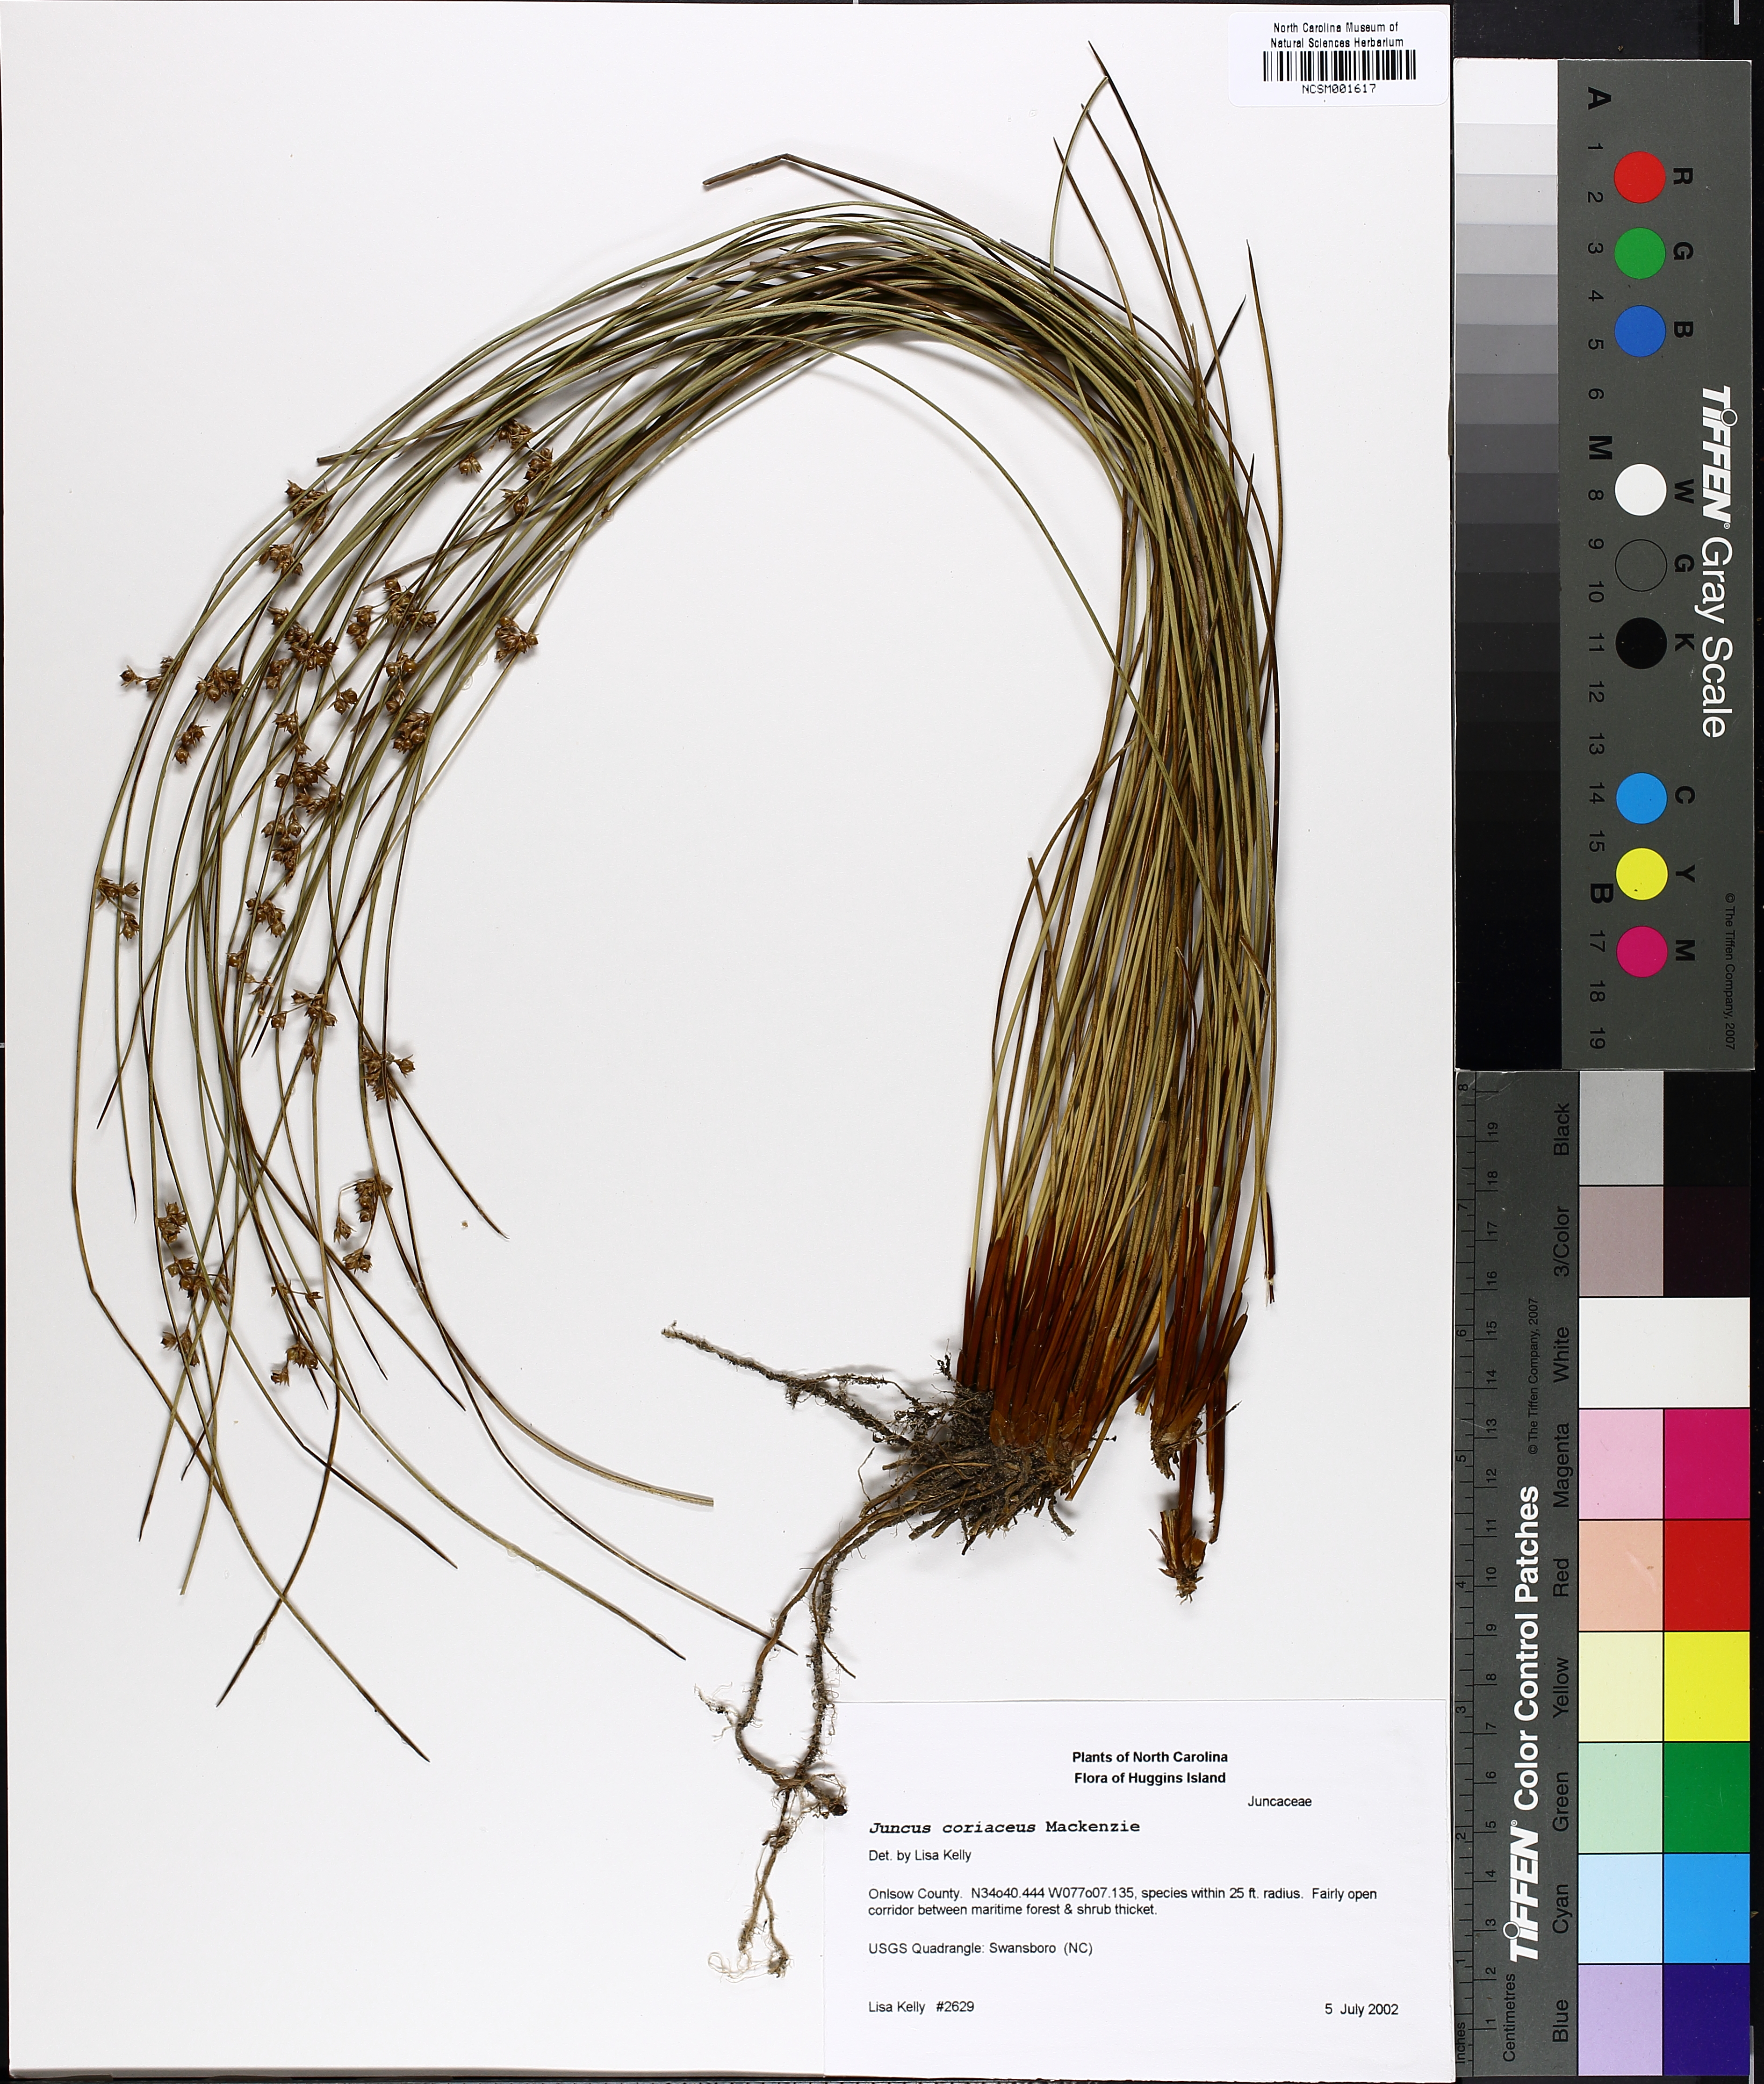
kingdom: Plantae
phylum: Tracheophyta
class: Liliopsida
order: Poales
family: Juncaceae
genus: Juncus
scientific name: Juncus coriaceus
